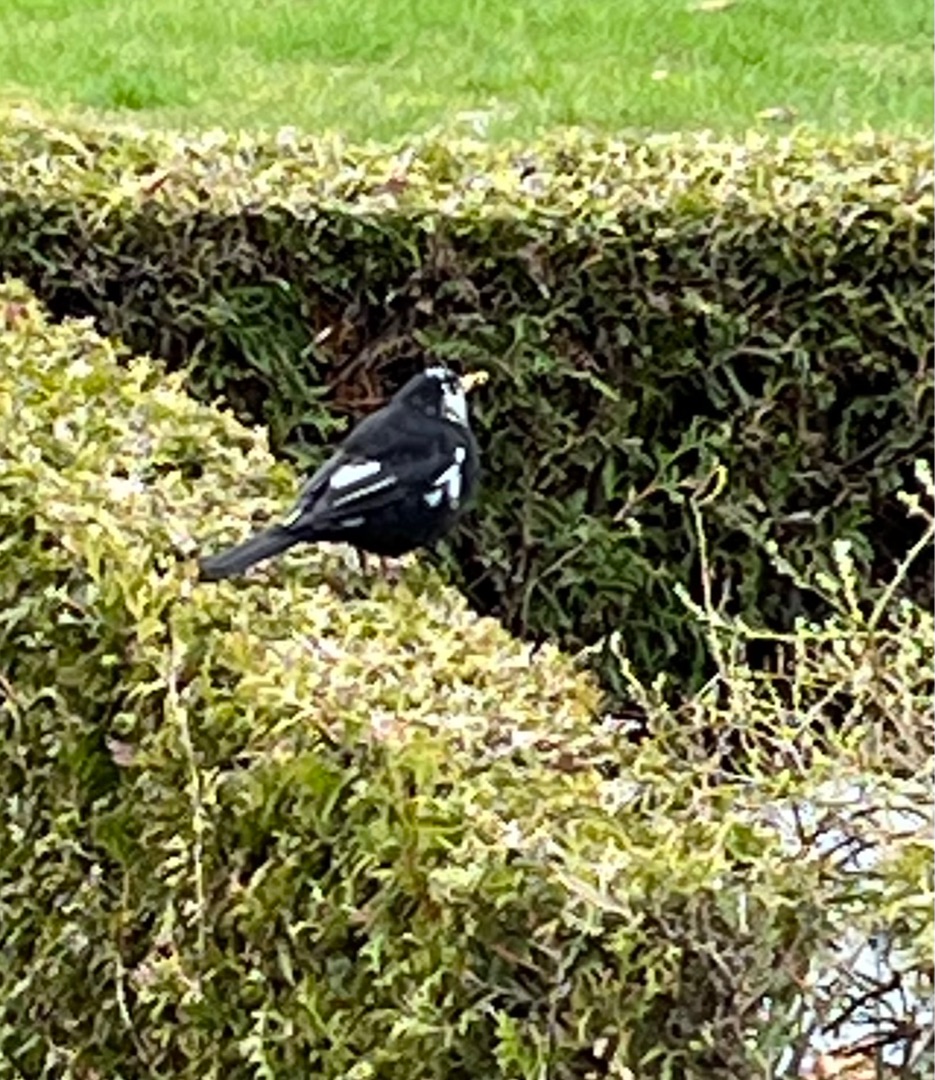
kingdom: Animalia
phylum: Chordata
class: Aves
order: Passeriformes
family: Turdidae
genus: Turdus
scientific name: Turdus merula
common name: Solsort
